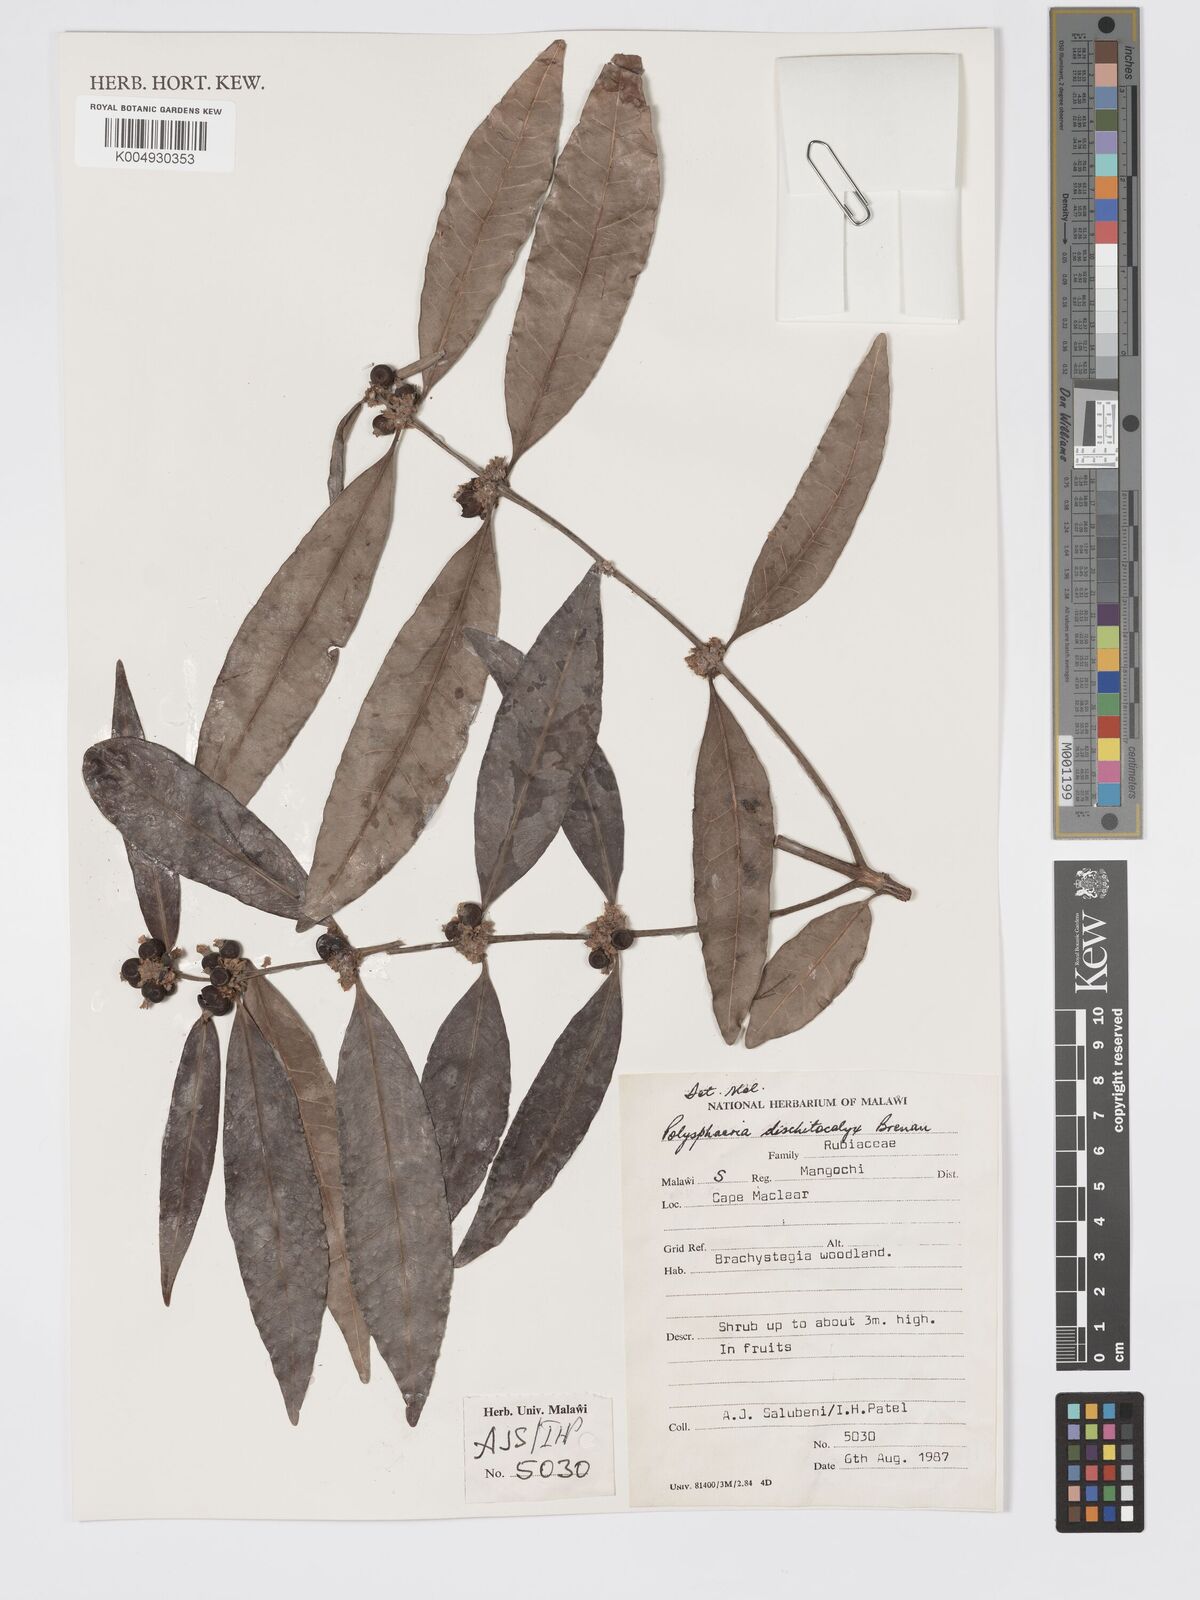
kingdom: Plantae
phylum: Tracheophyta
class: Magnoliopsida
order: Gentianales
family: Rubiaceae
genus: Polysphaeria
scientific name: Polysphaeria dischistocalyx
